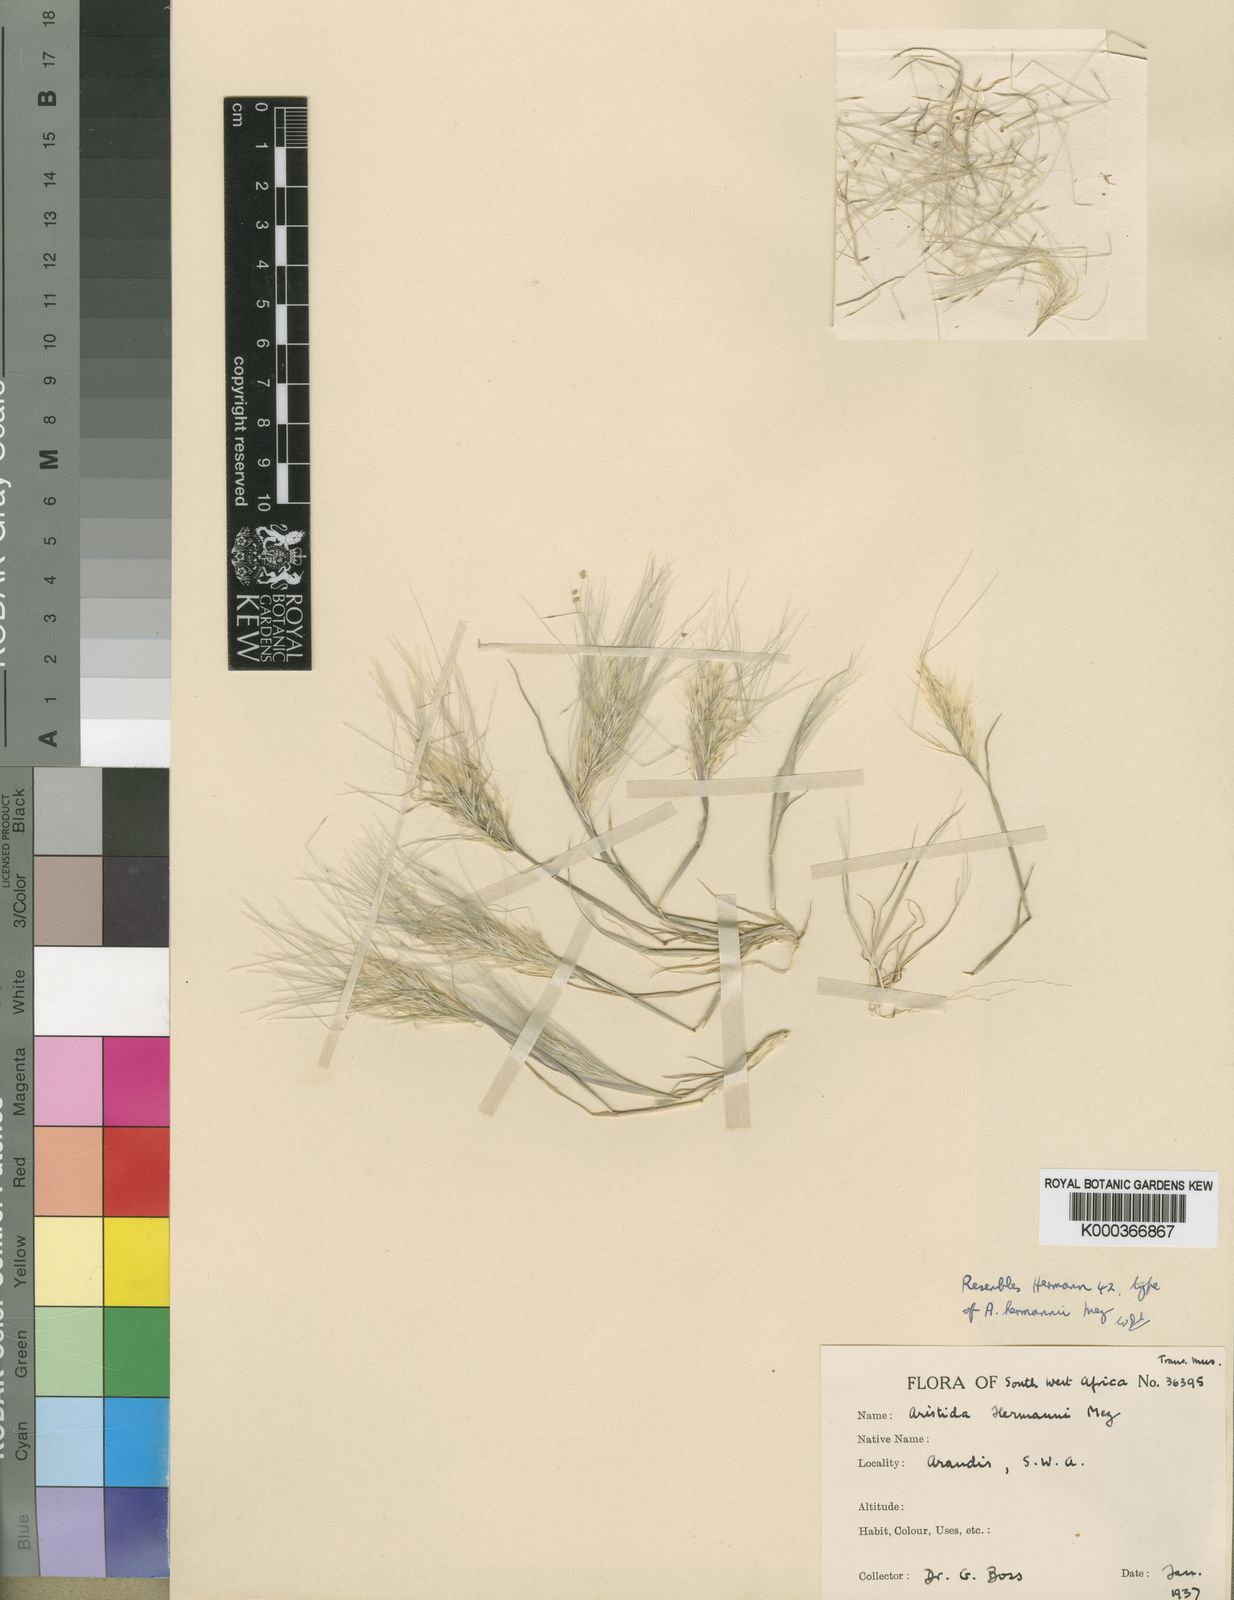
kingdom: Plantae
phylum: Tracheophyta
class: Liliopsida
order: Poales
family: Poaceae
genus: Stipagrostis
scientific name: Stipagrostis hermannii
